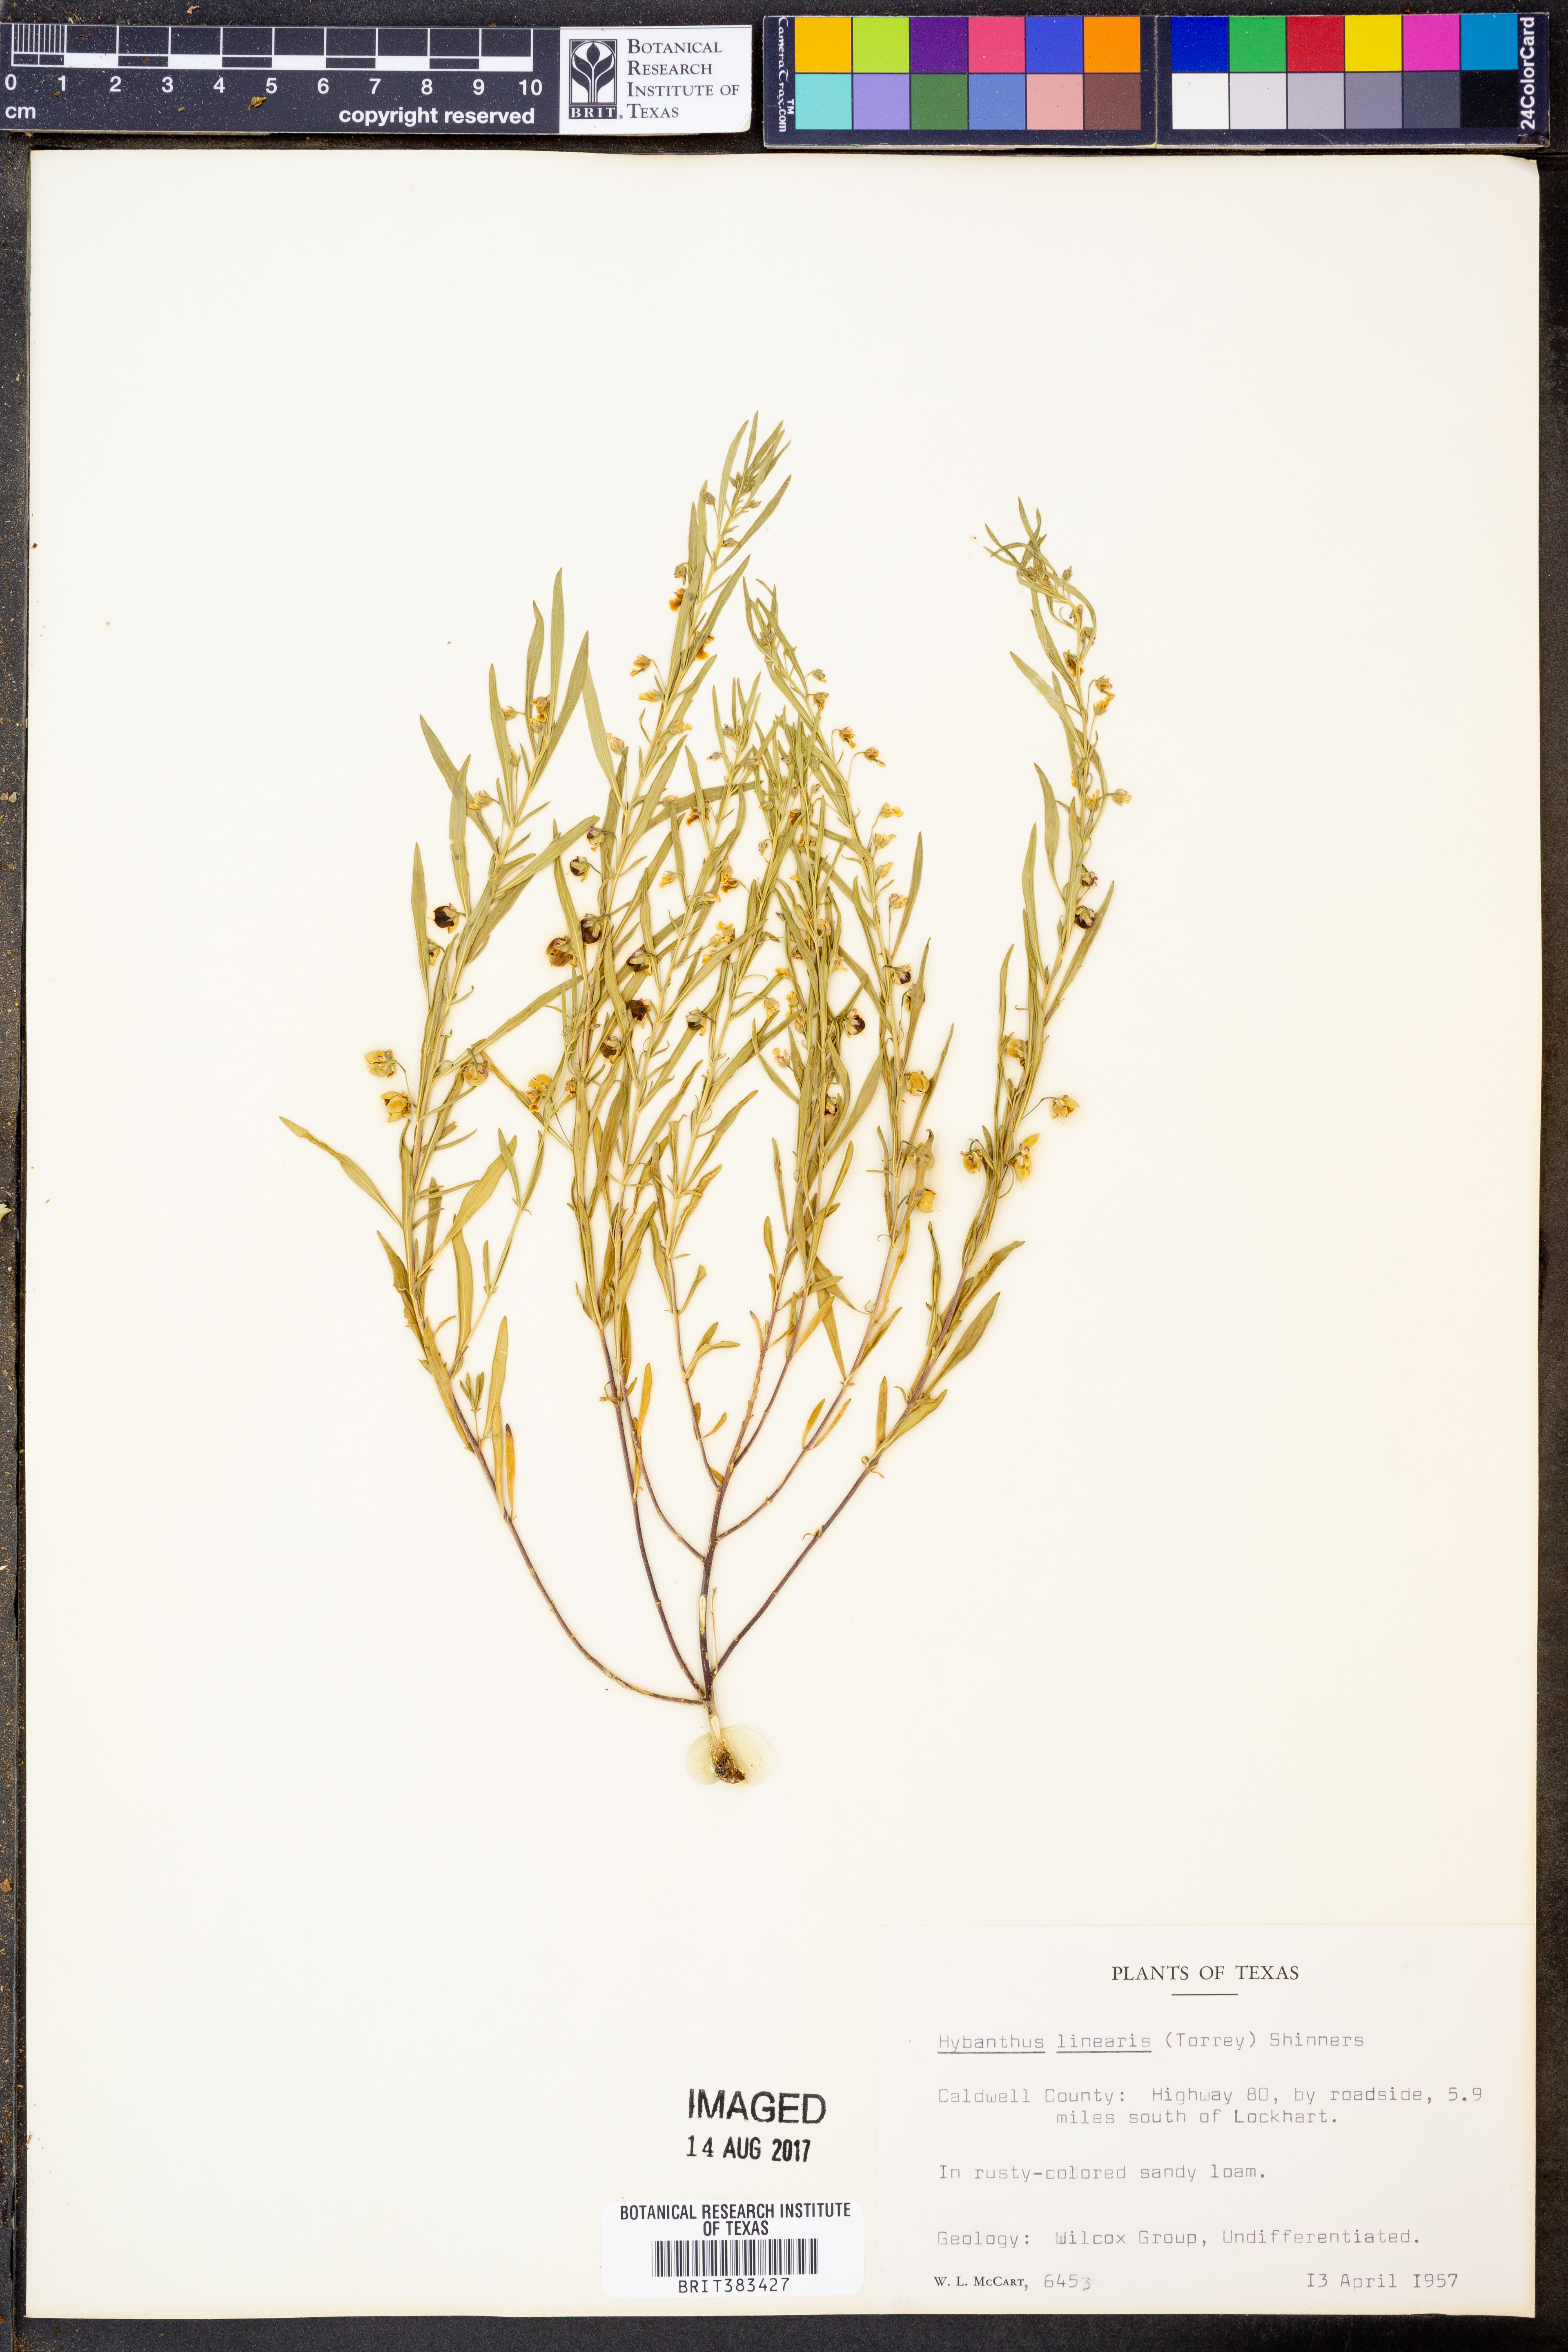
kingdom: Plantae
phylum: Tracheophyta
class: Magnoliopsida
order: Malpighiales
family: Violaceae
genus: Pombalia
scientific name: Pombalia verticillata
